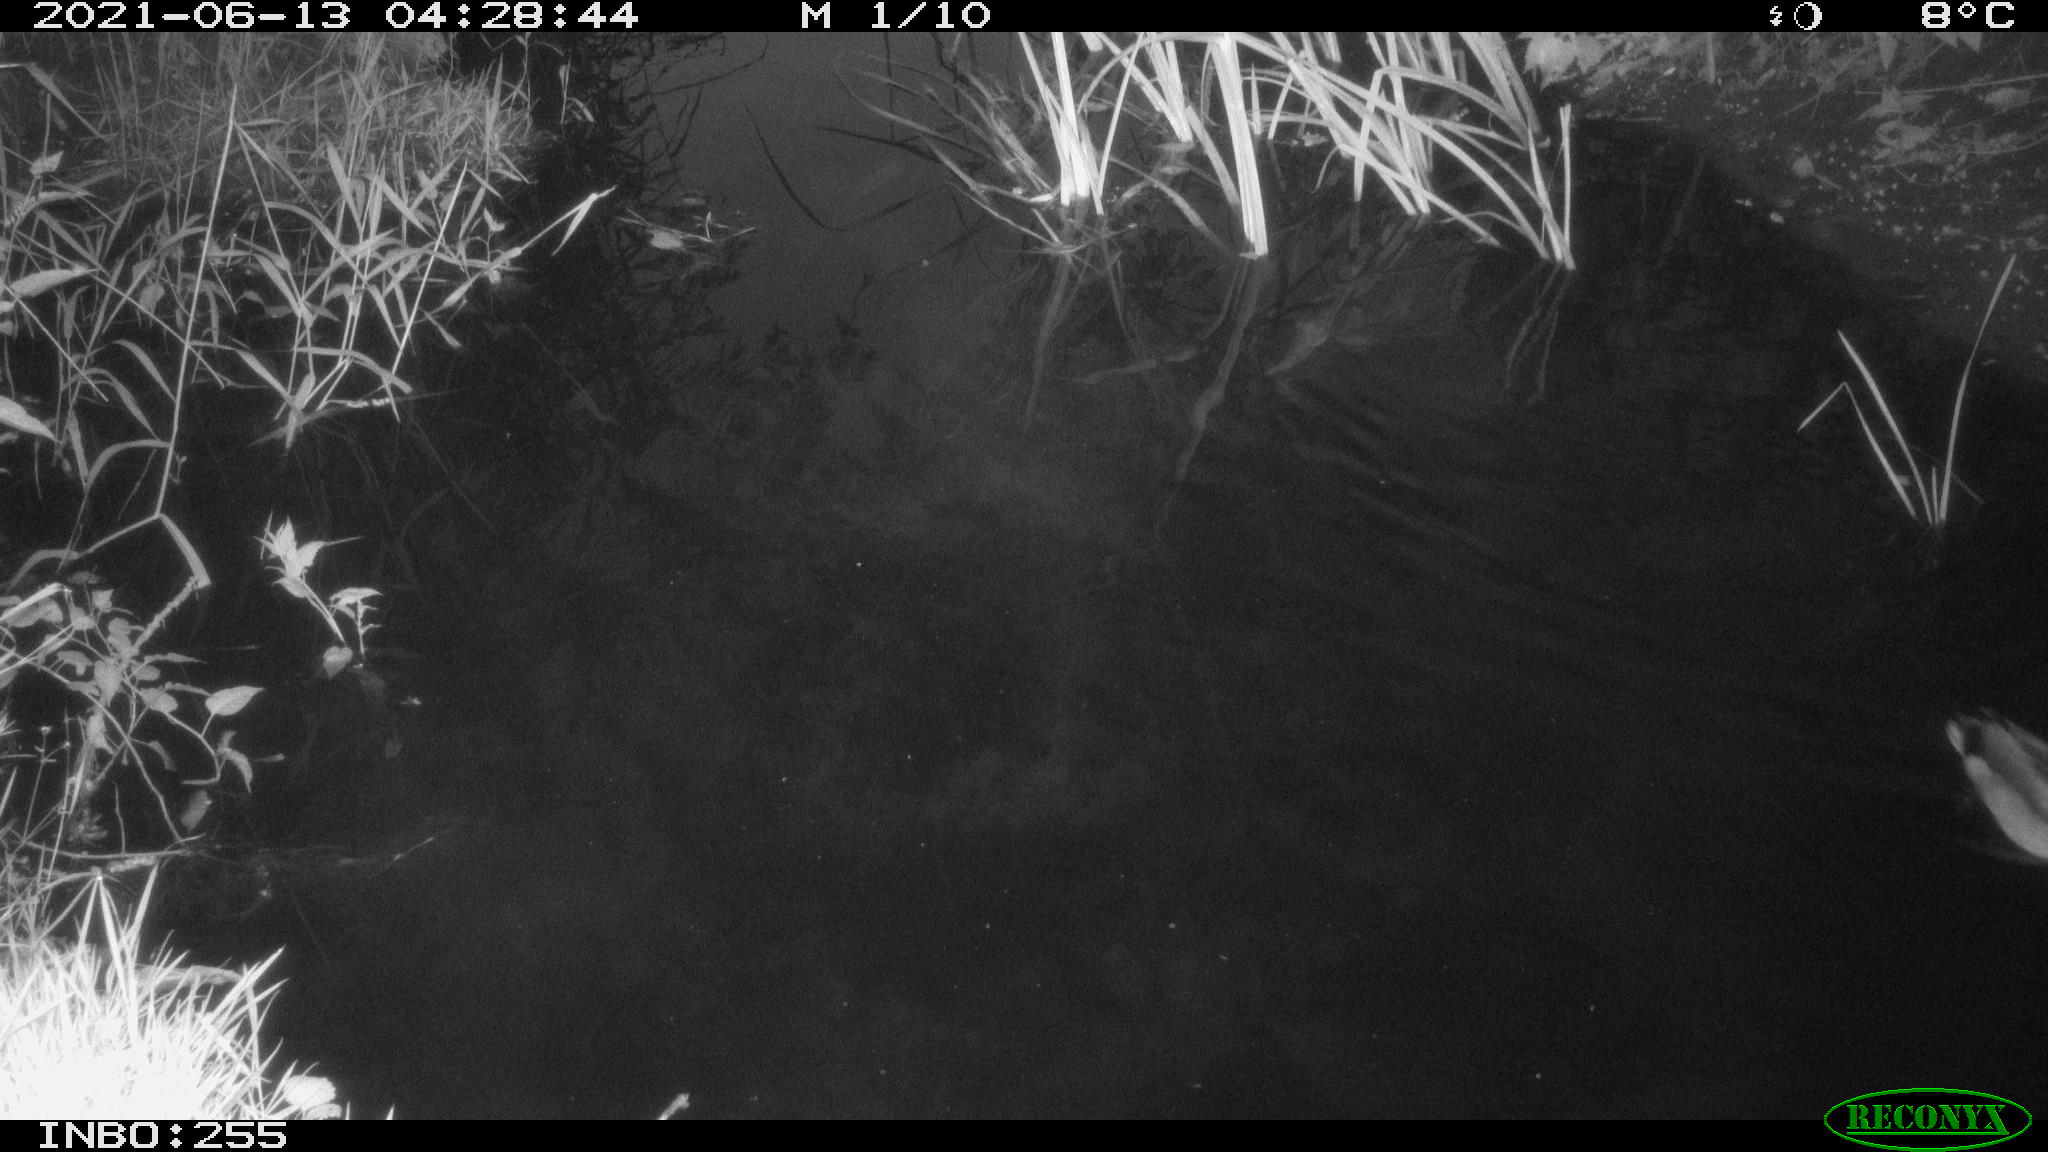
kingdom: Animalia
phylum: Chordata
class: Aves
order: Anseriformes
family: Anatidae
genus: Anas
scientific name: Anas platyrhynchos
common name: Mallard
